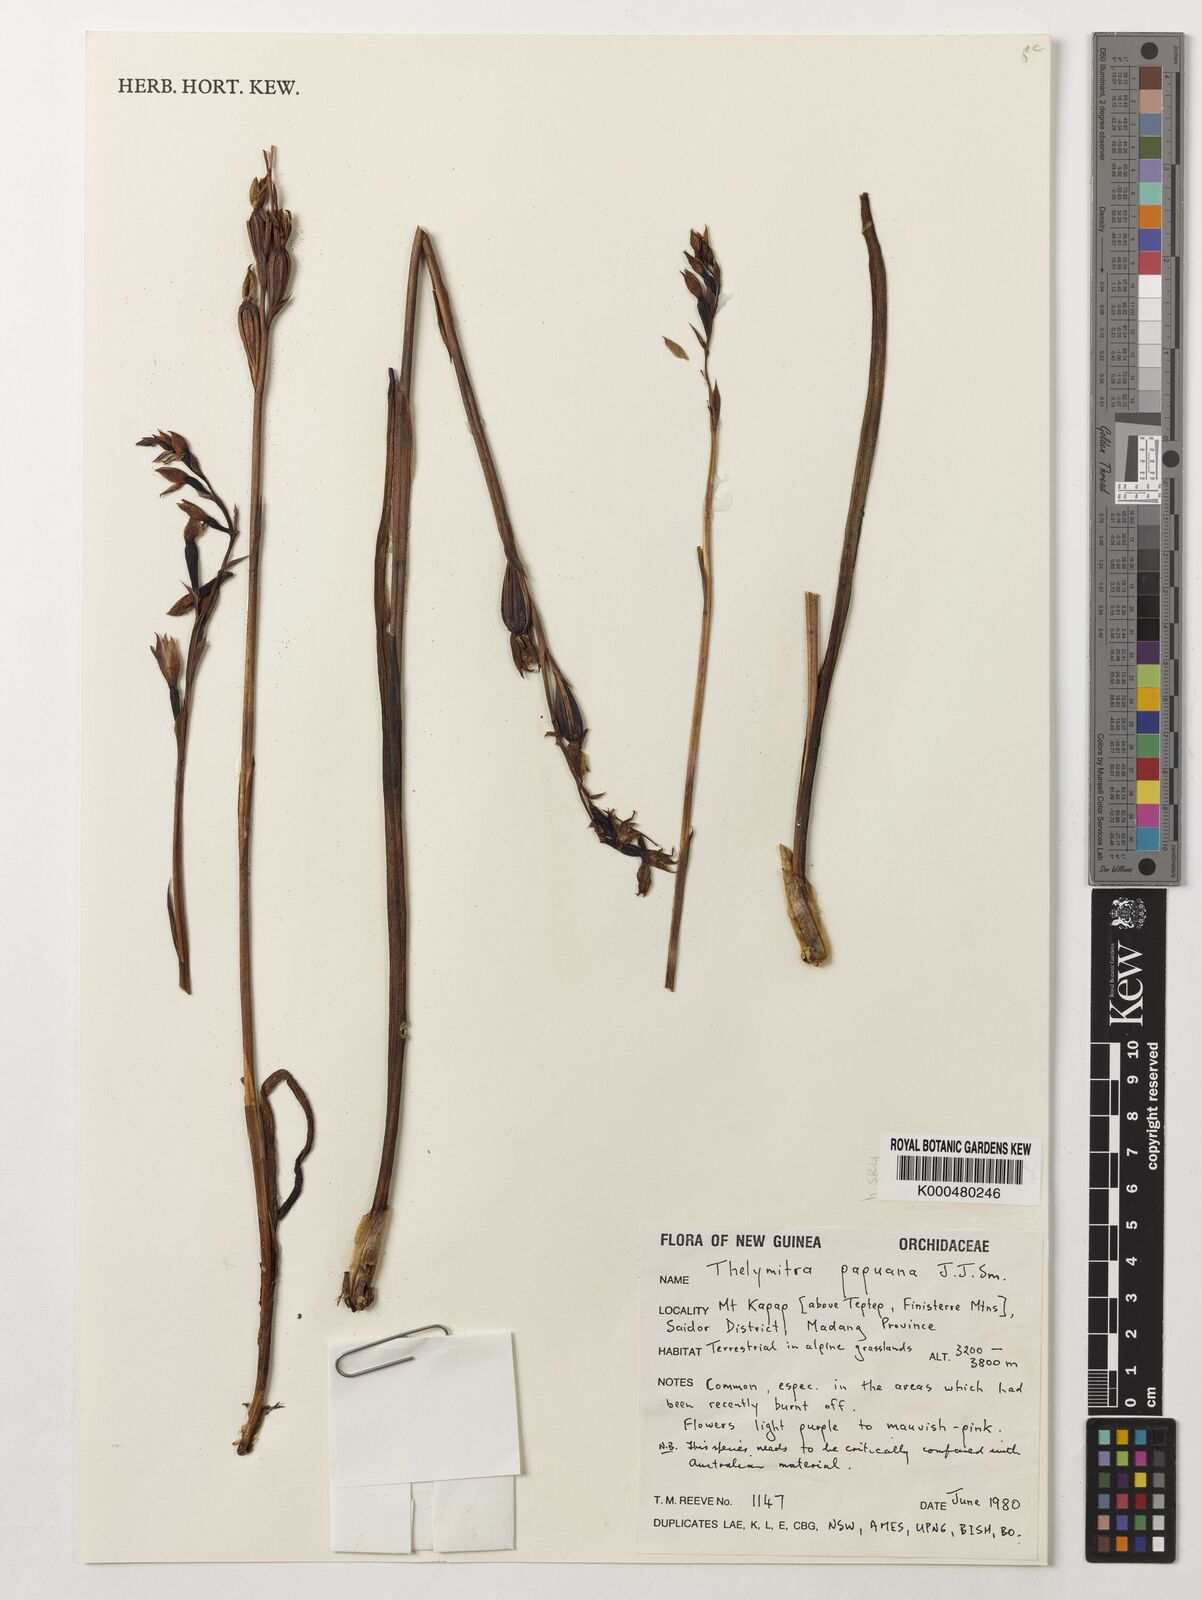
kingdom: Plantae
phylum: Tracheophyta
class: Liliopsida
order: Asparagales
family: Orchidaceae
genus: Thelymitra
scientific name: Thelymitra papuana
